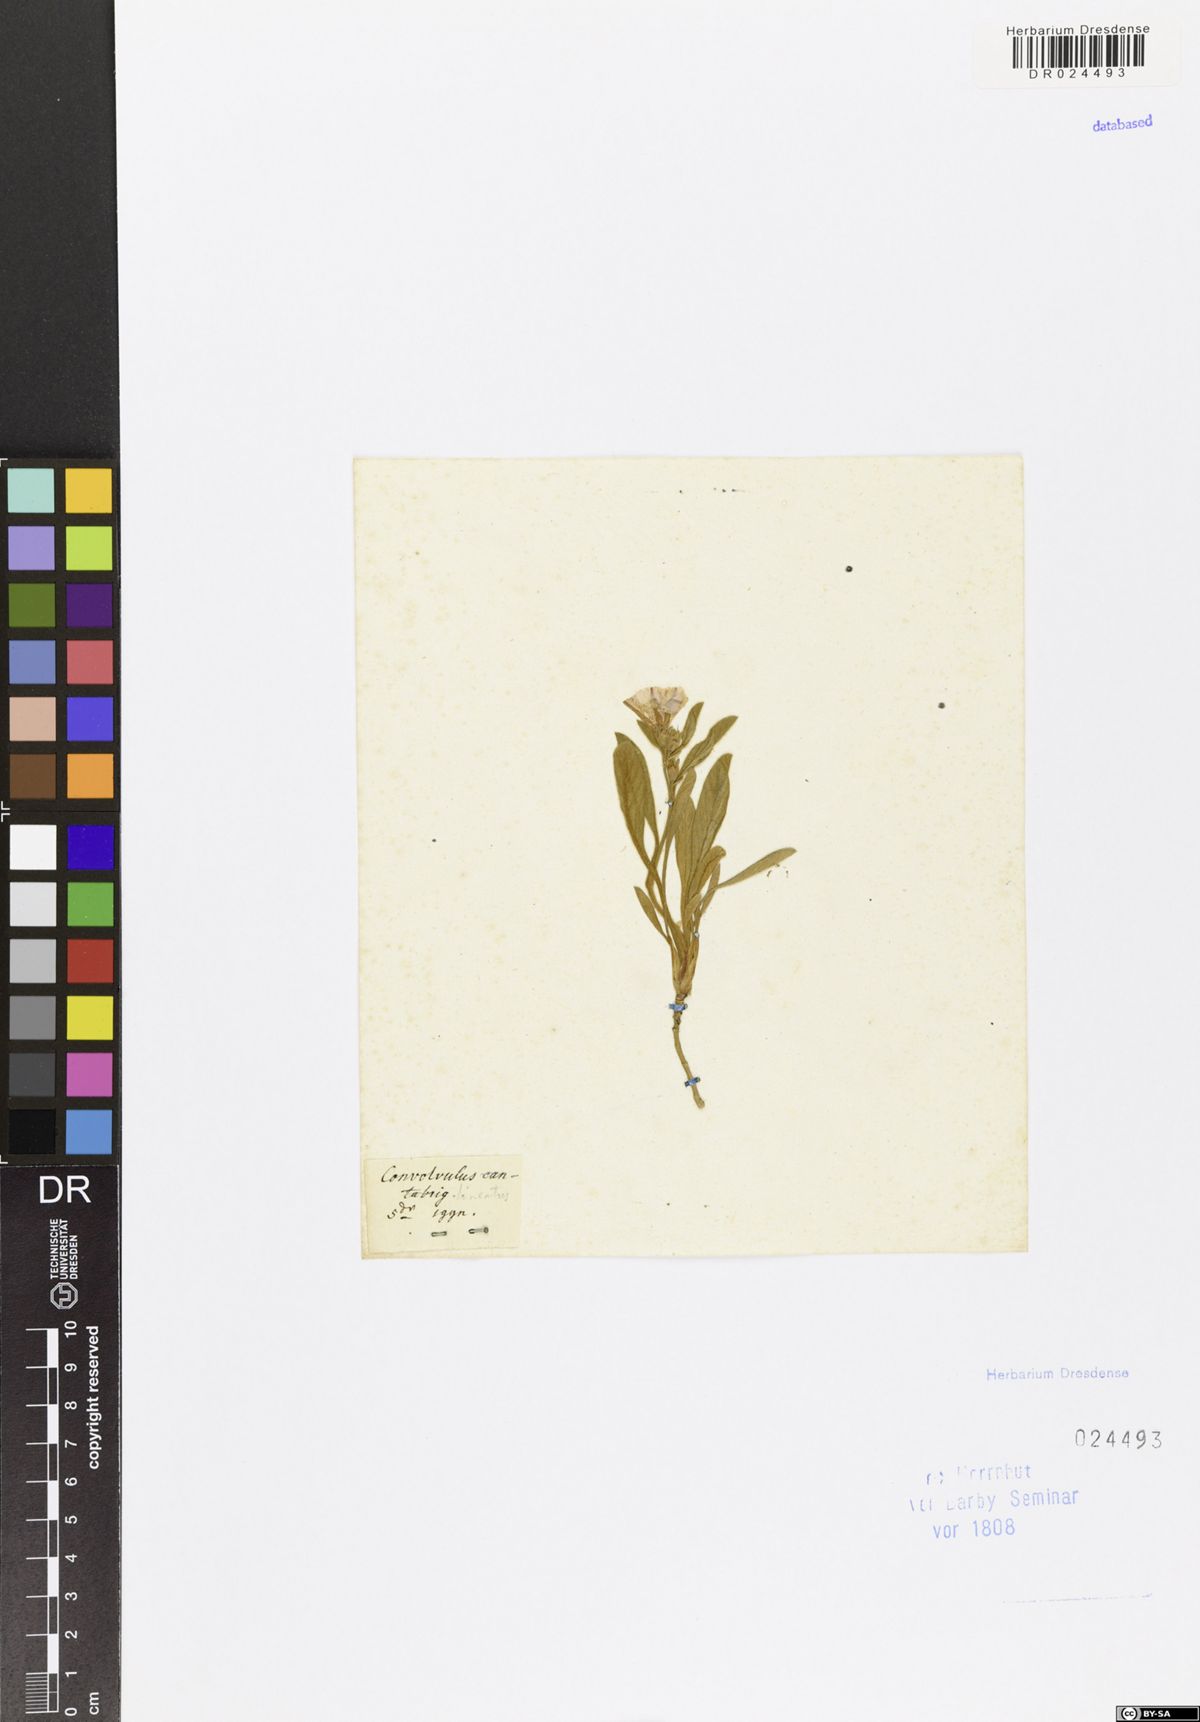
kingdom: Plantae
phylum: Tracheophyta
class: Magnoliopsida
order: Solanales
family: Convolvulaceae
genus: Convolvulus
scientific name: Convolvulus lineatus
